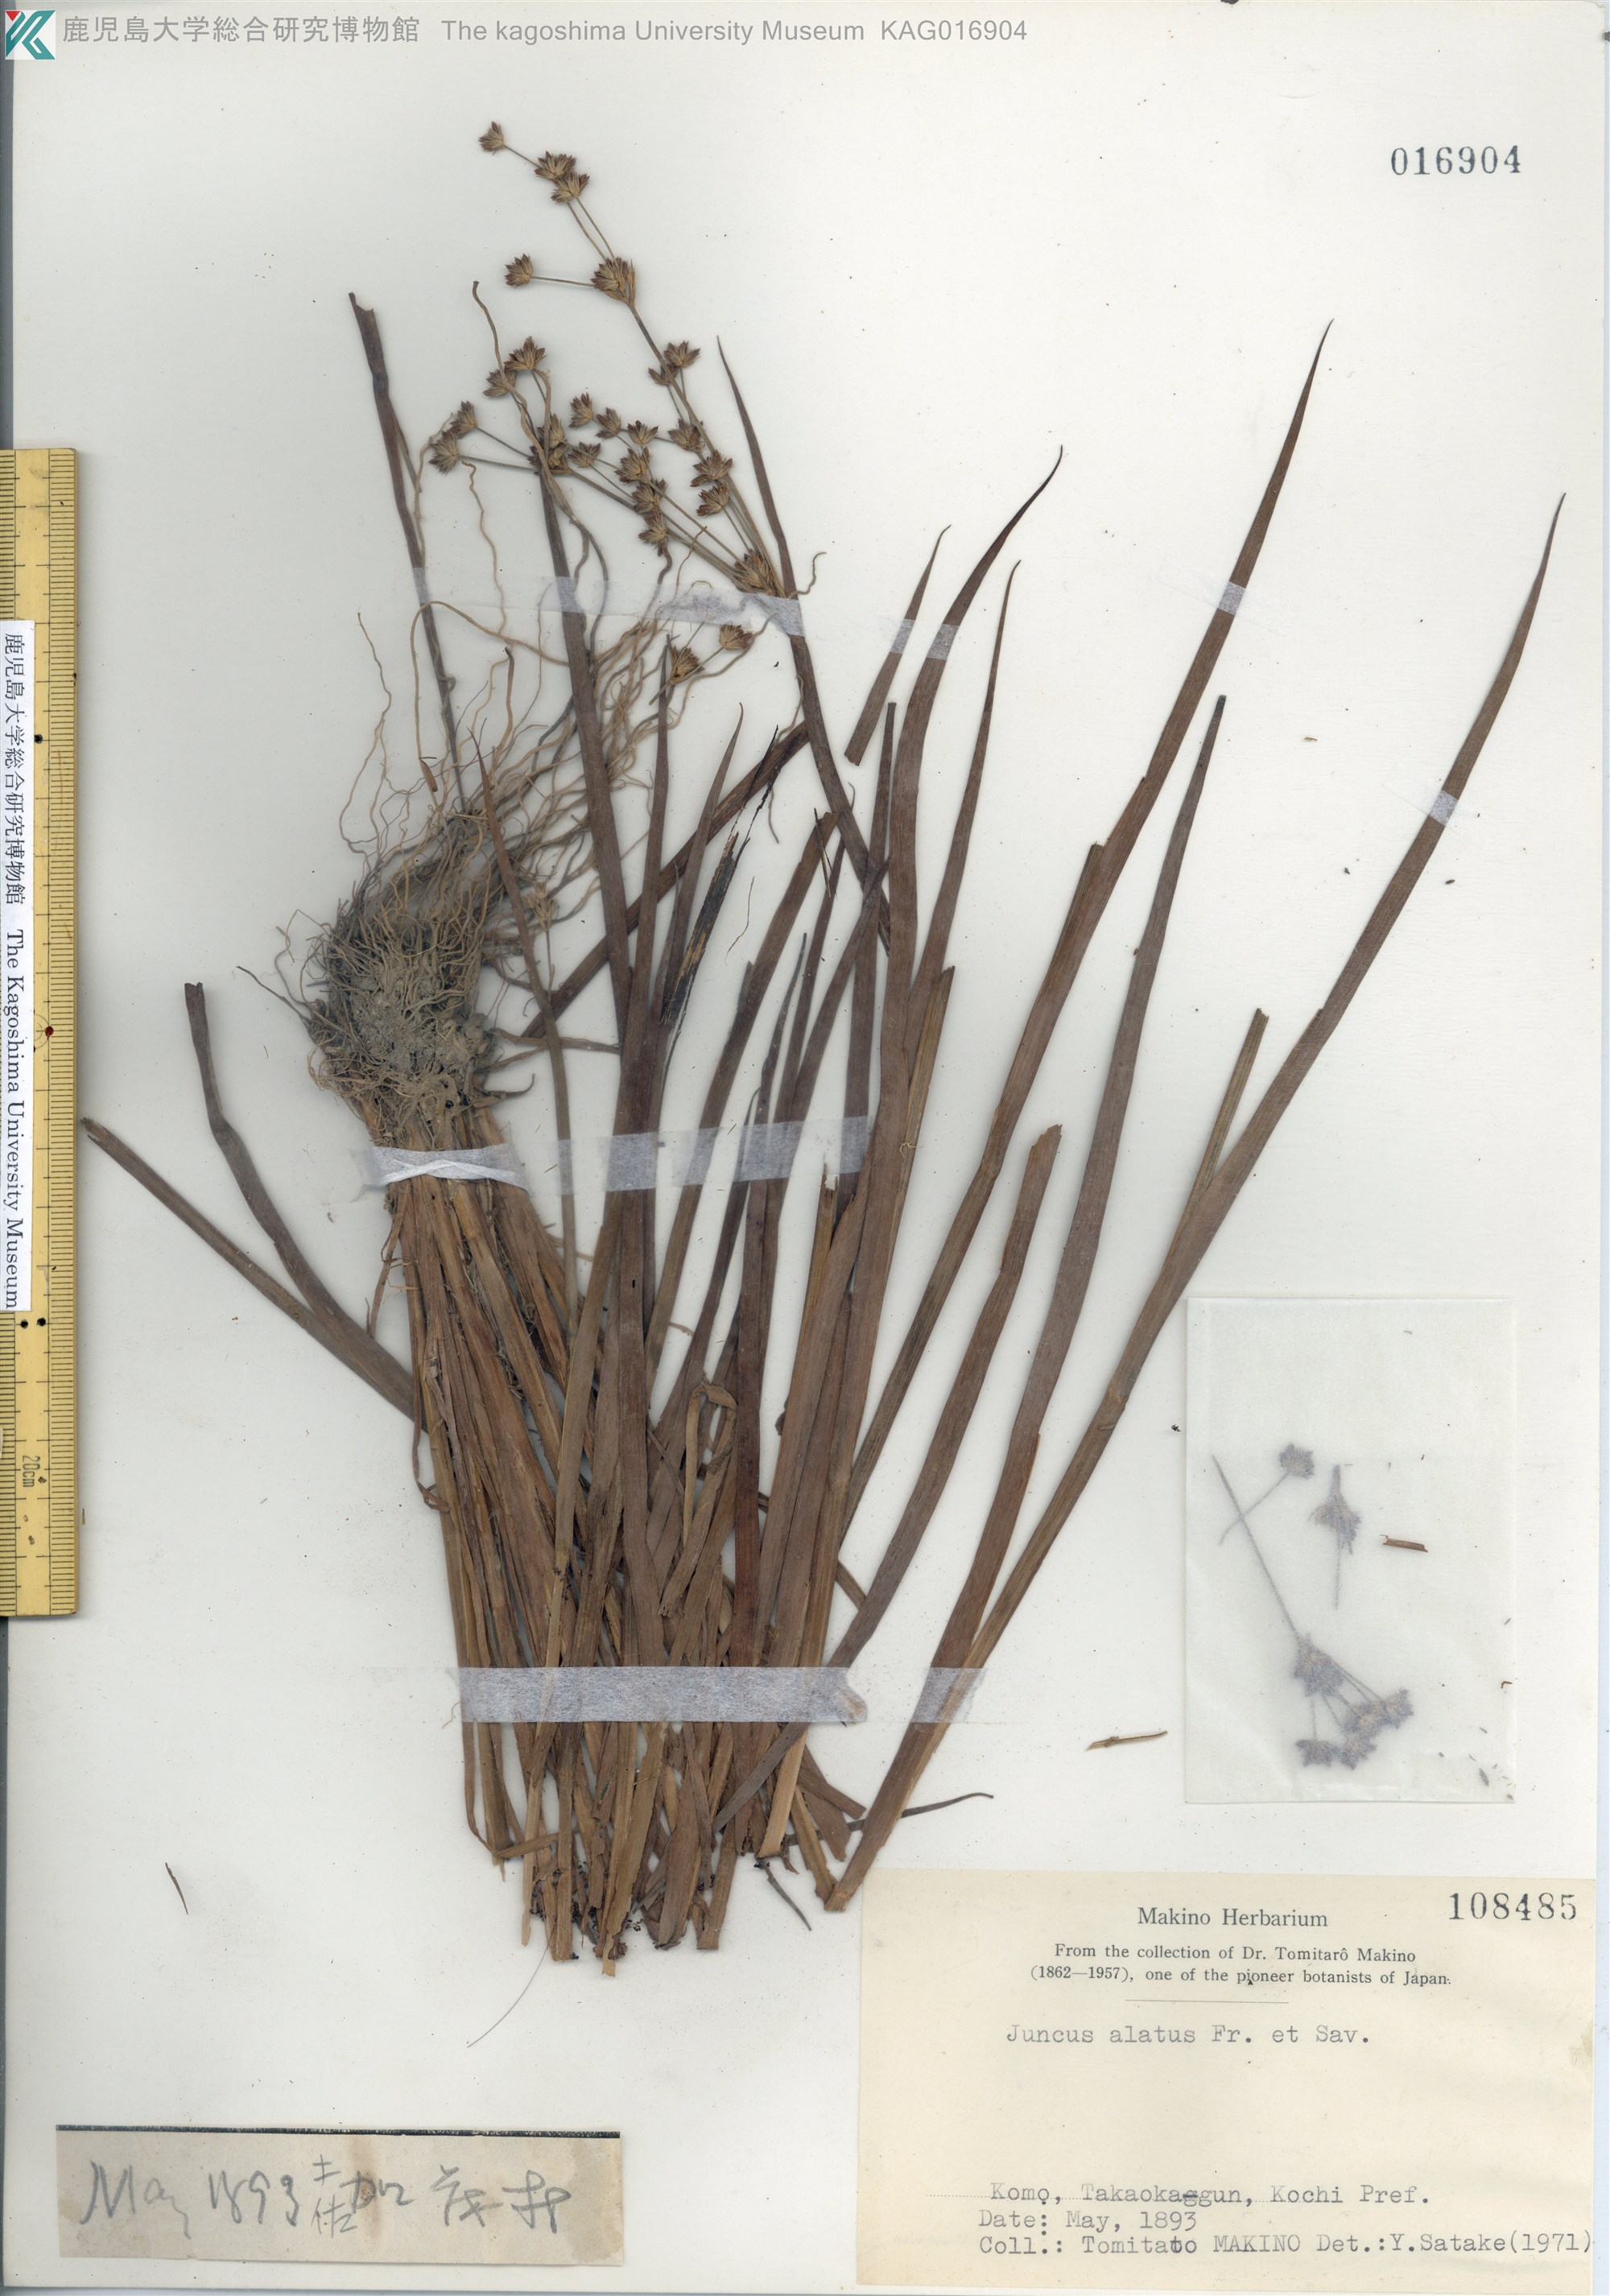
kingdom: Plantae
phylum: Tracheophyta
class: Liliopsida
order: Poales
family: Juncaceae
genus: Juncus
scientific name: Juncus alatus
